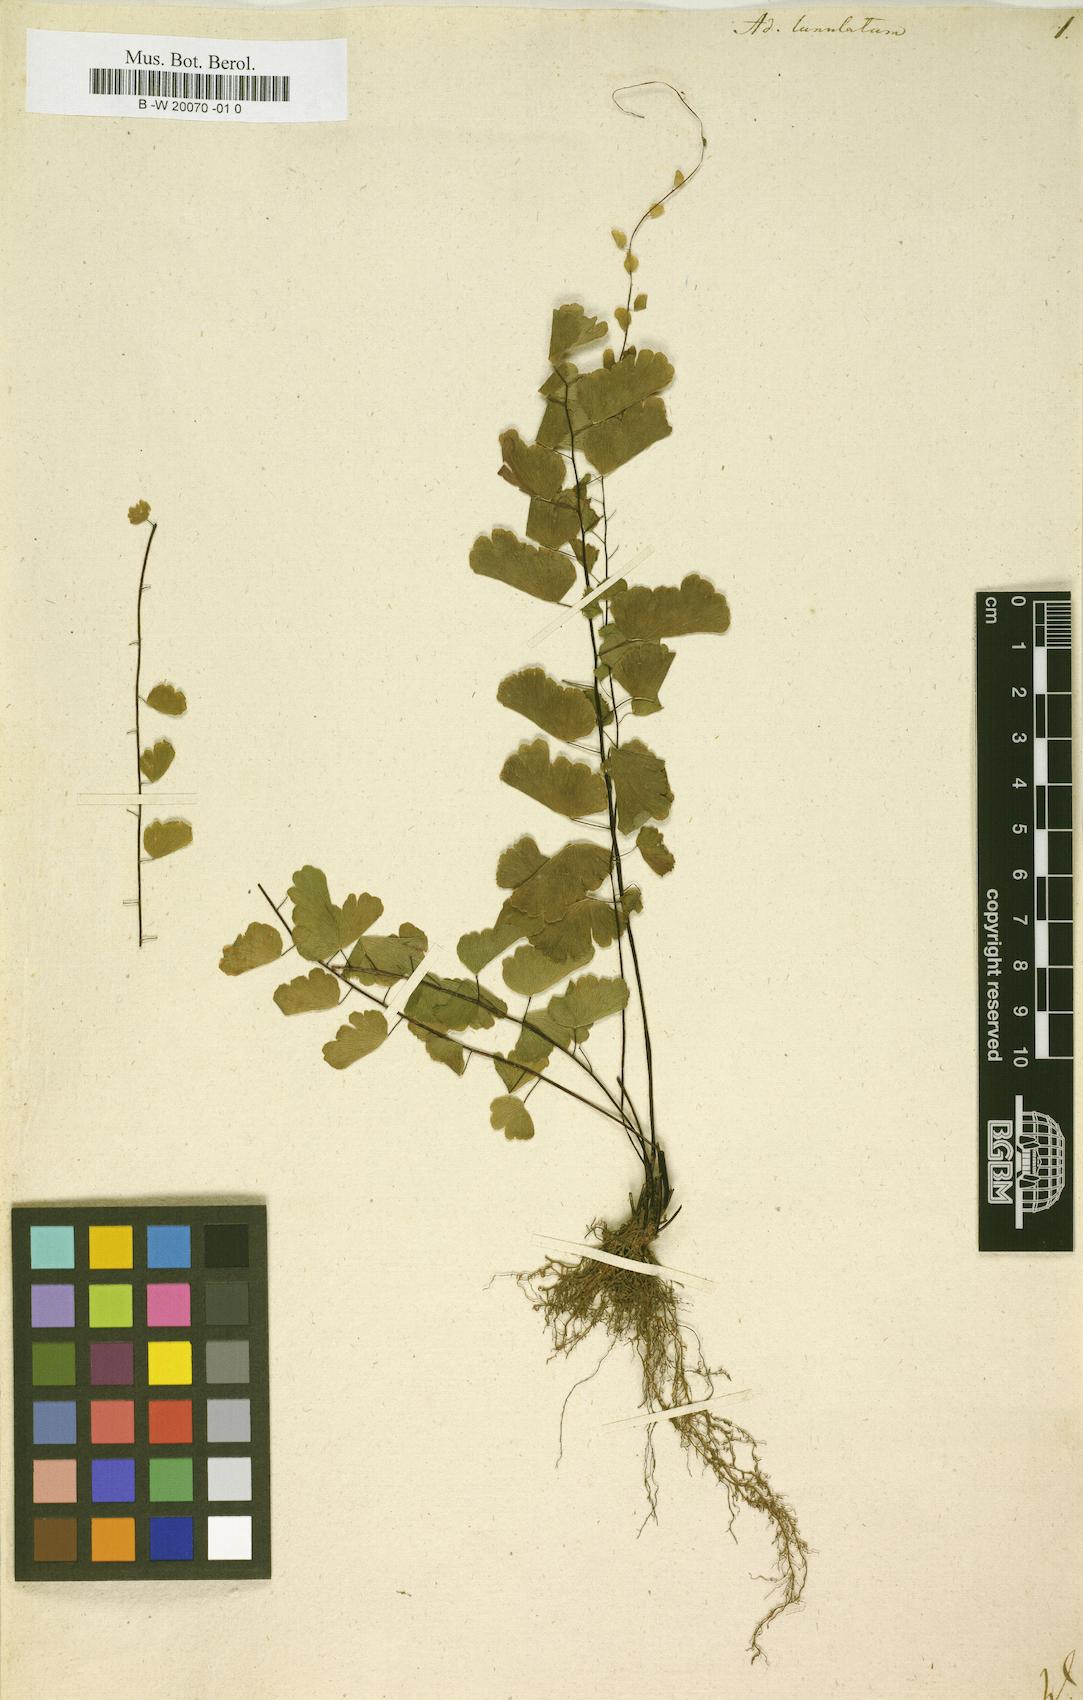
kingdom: Plantae
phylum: Tracheophyta
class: Polypodiopsida
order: Polypodiales
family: Pteridaceae
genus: Adiantum
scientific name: Adiantum philippense
